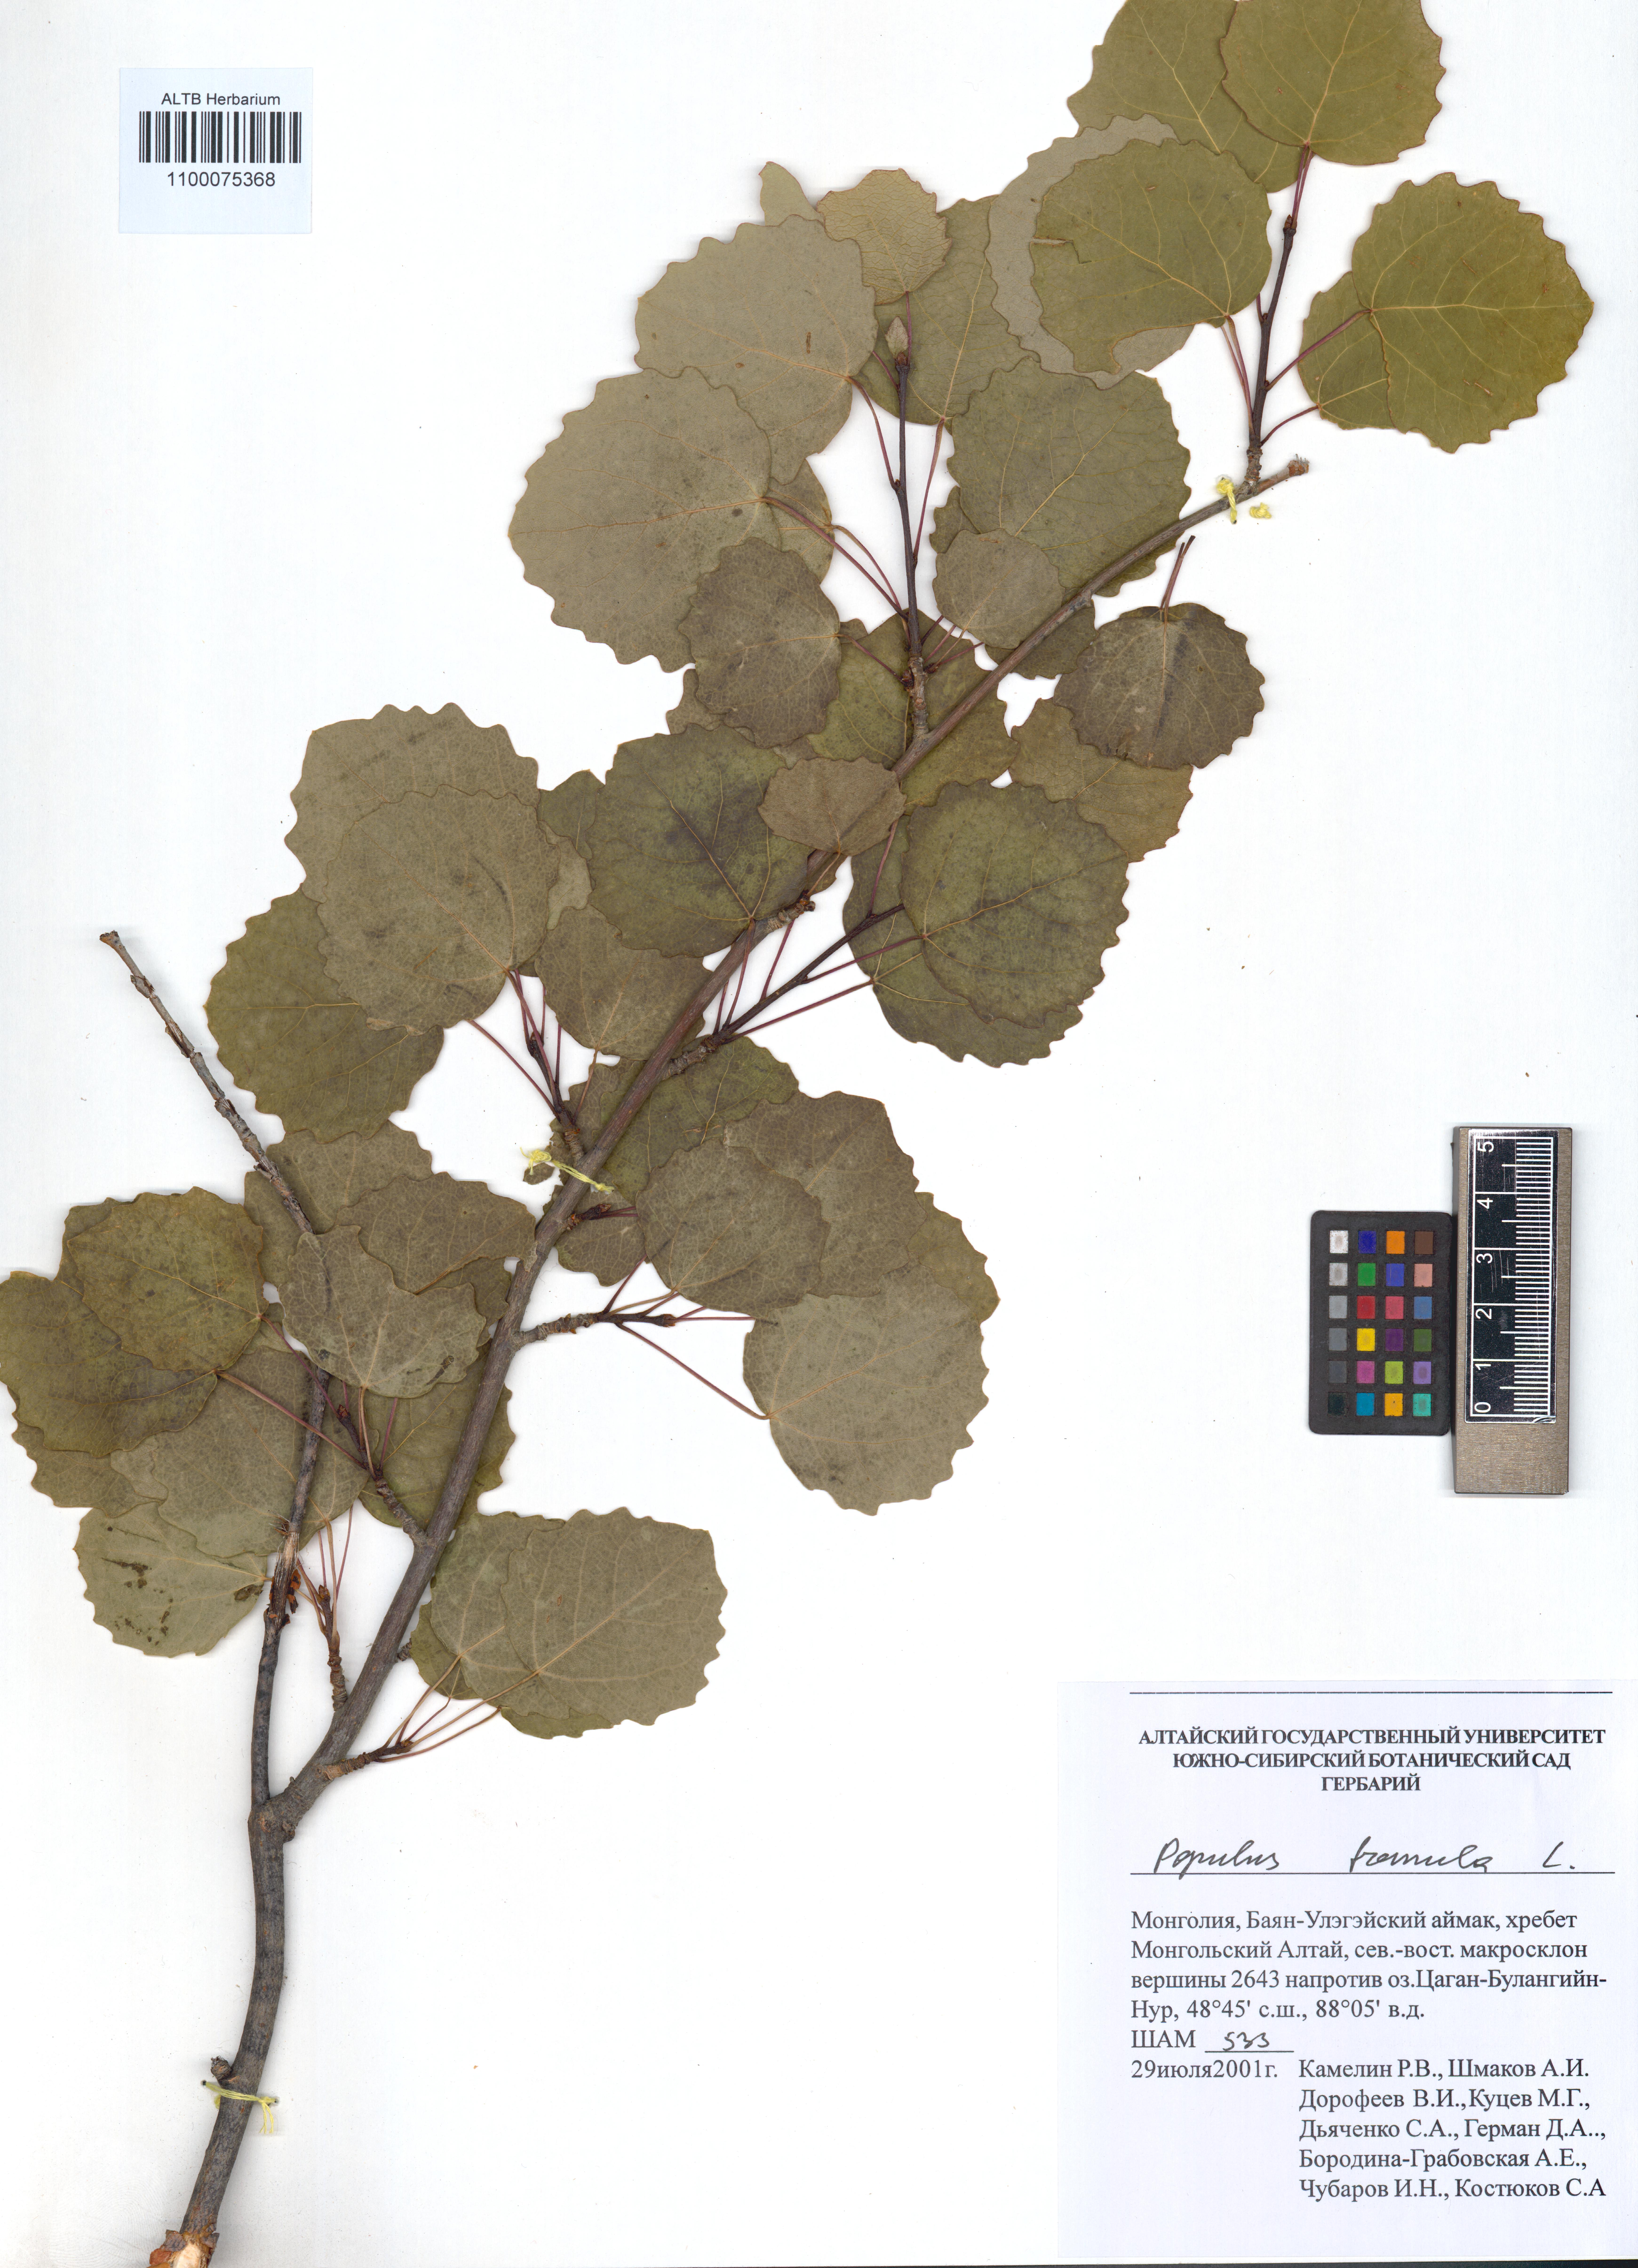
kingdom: Plantae
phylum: Tracheophyta
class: Magnoliopsida
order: Malpighiales
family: Salicaceae
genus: Populus
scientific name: Populus tremula
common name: European aspen
